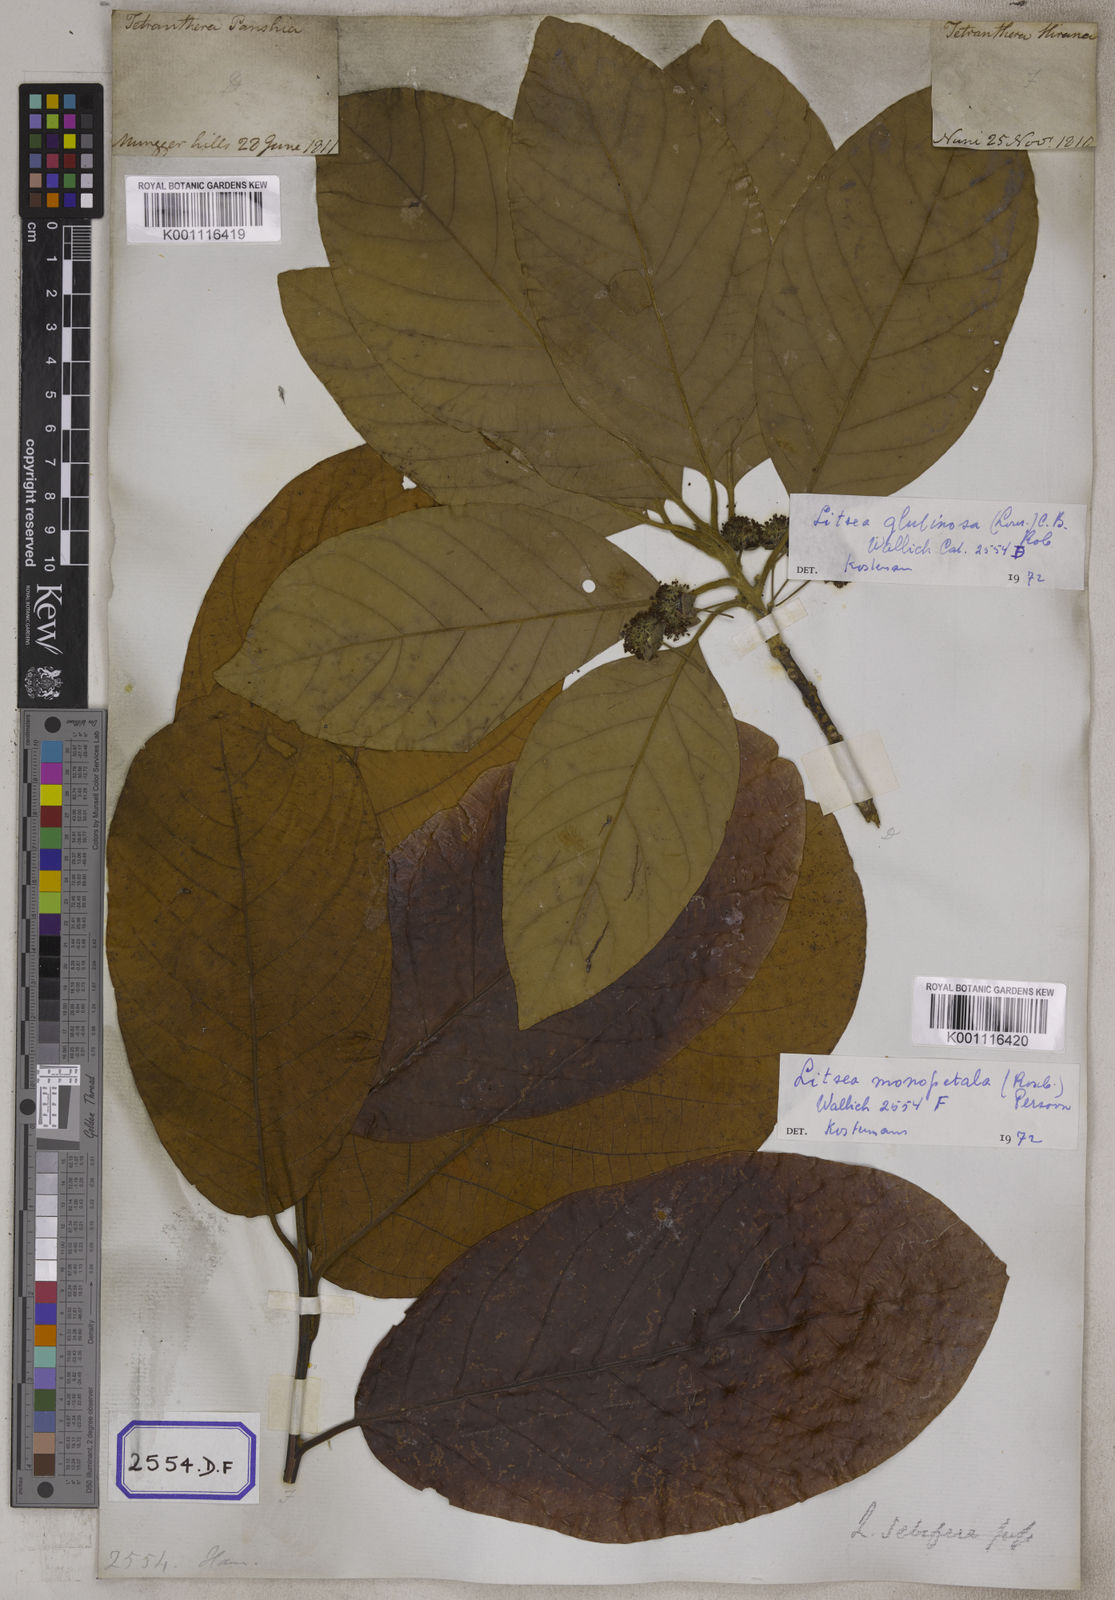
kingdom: Plantae
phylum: Tracheophyta
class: Magnoliopsida
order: Laurales
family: Lauraceae
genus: Litsea
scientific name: Litsea glutinosa
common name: Indian-laurel
